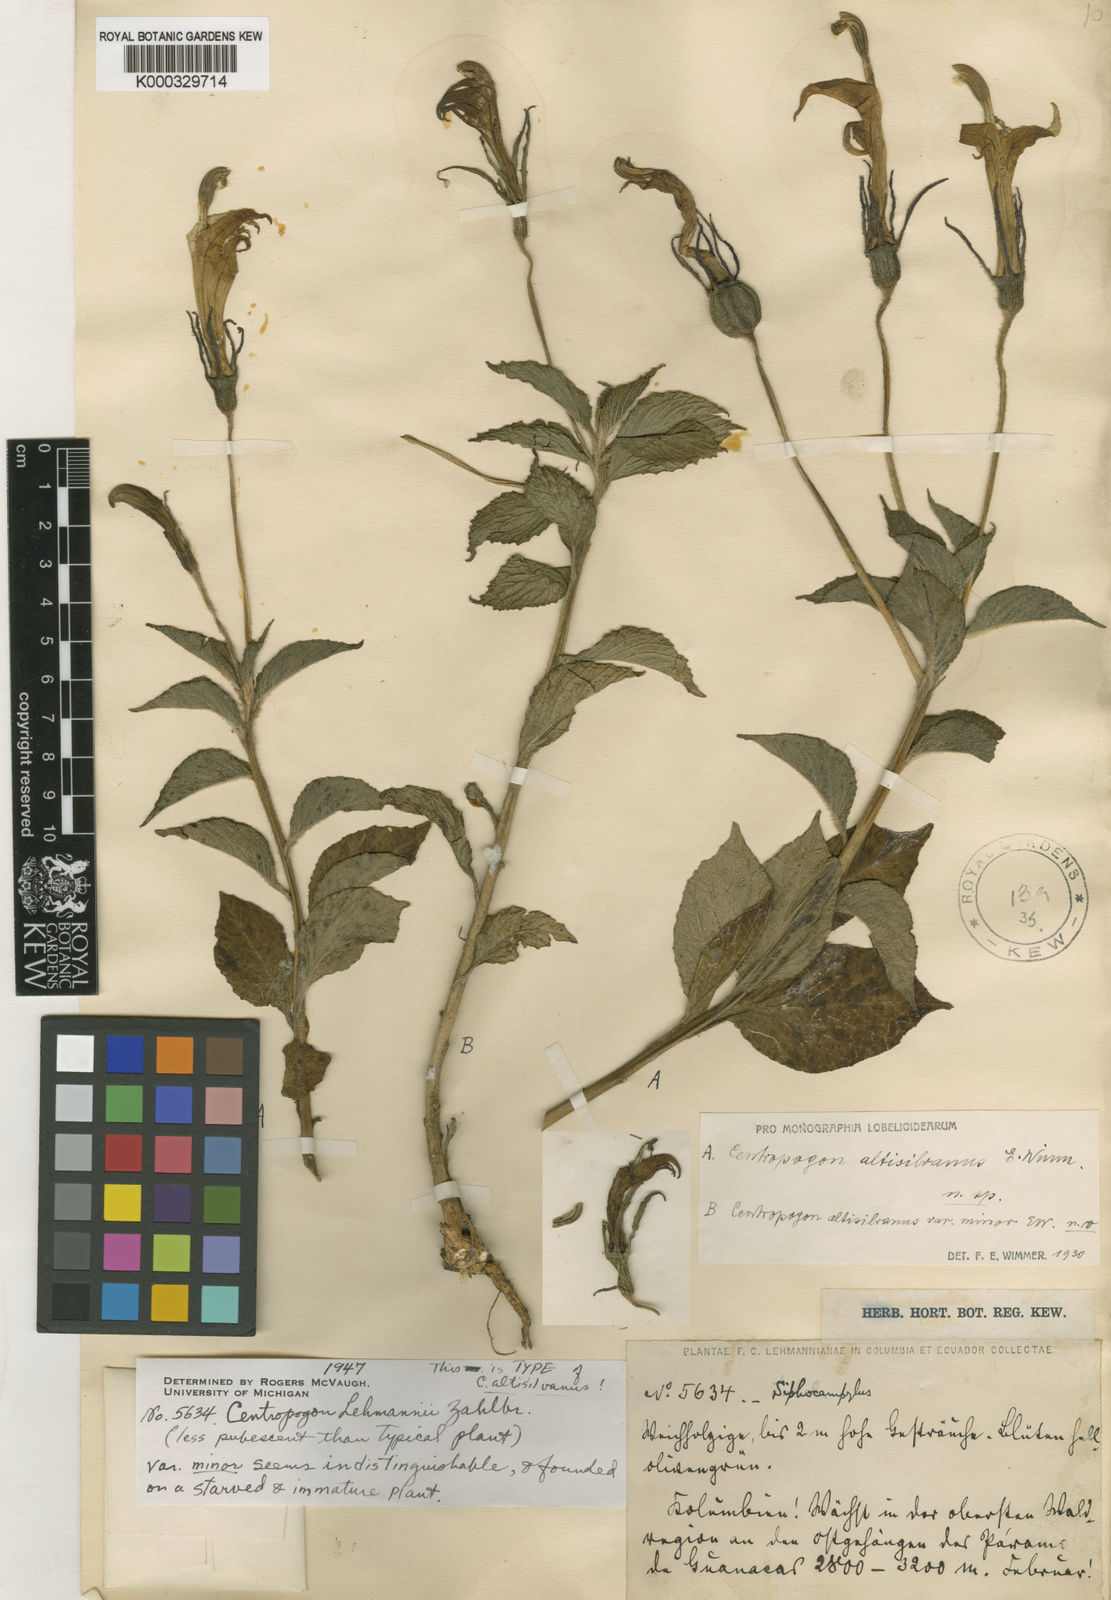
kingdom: Plantae
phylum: Tracheophyta
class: Magnoliopsida
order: Asterales
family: Campanulaceae
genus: Centropogon
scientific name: Centropogon lehmannii
